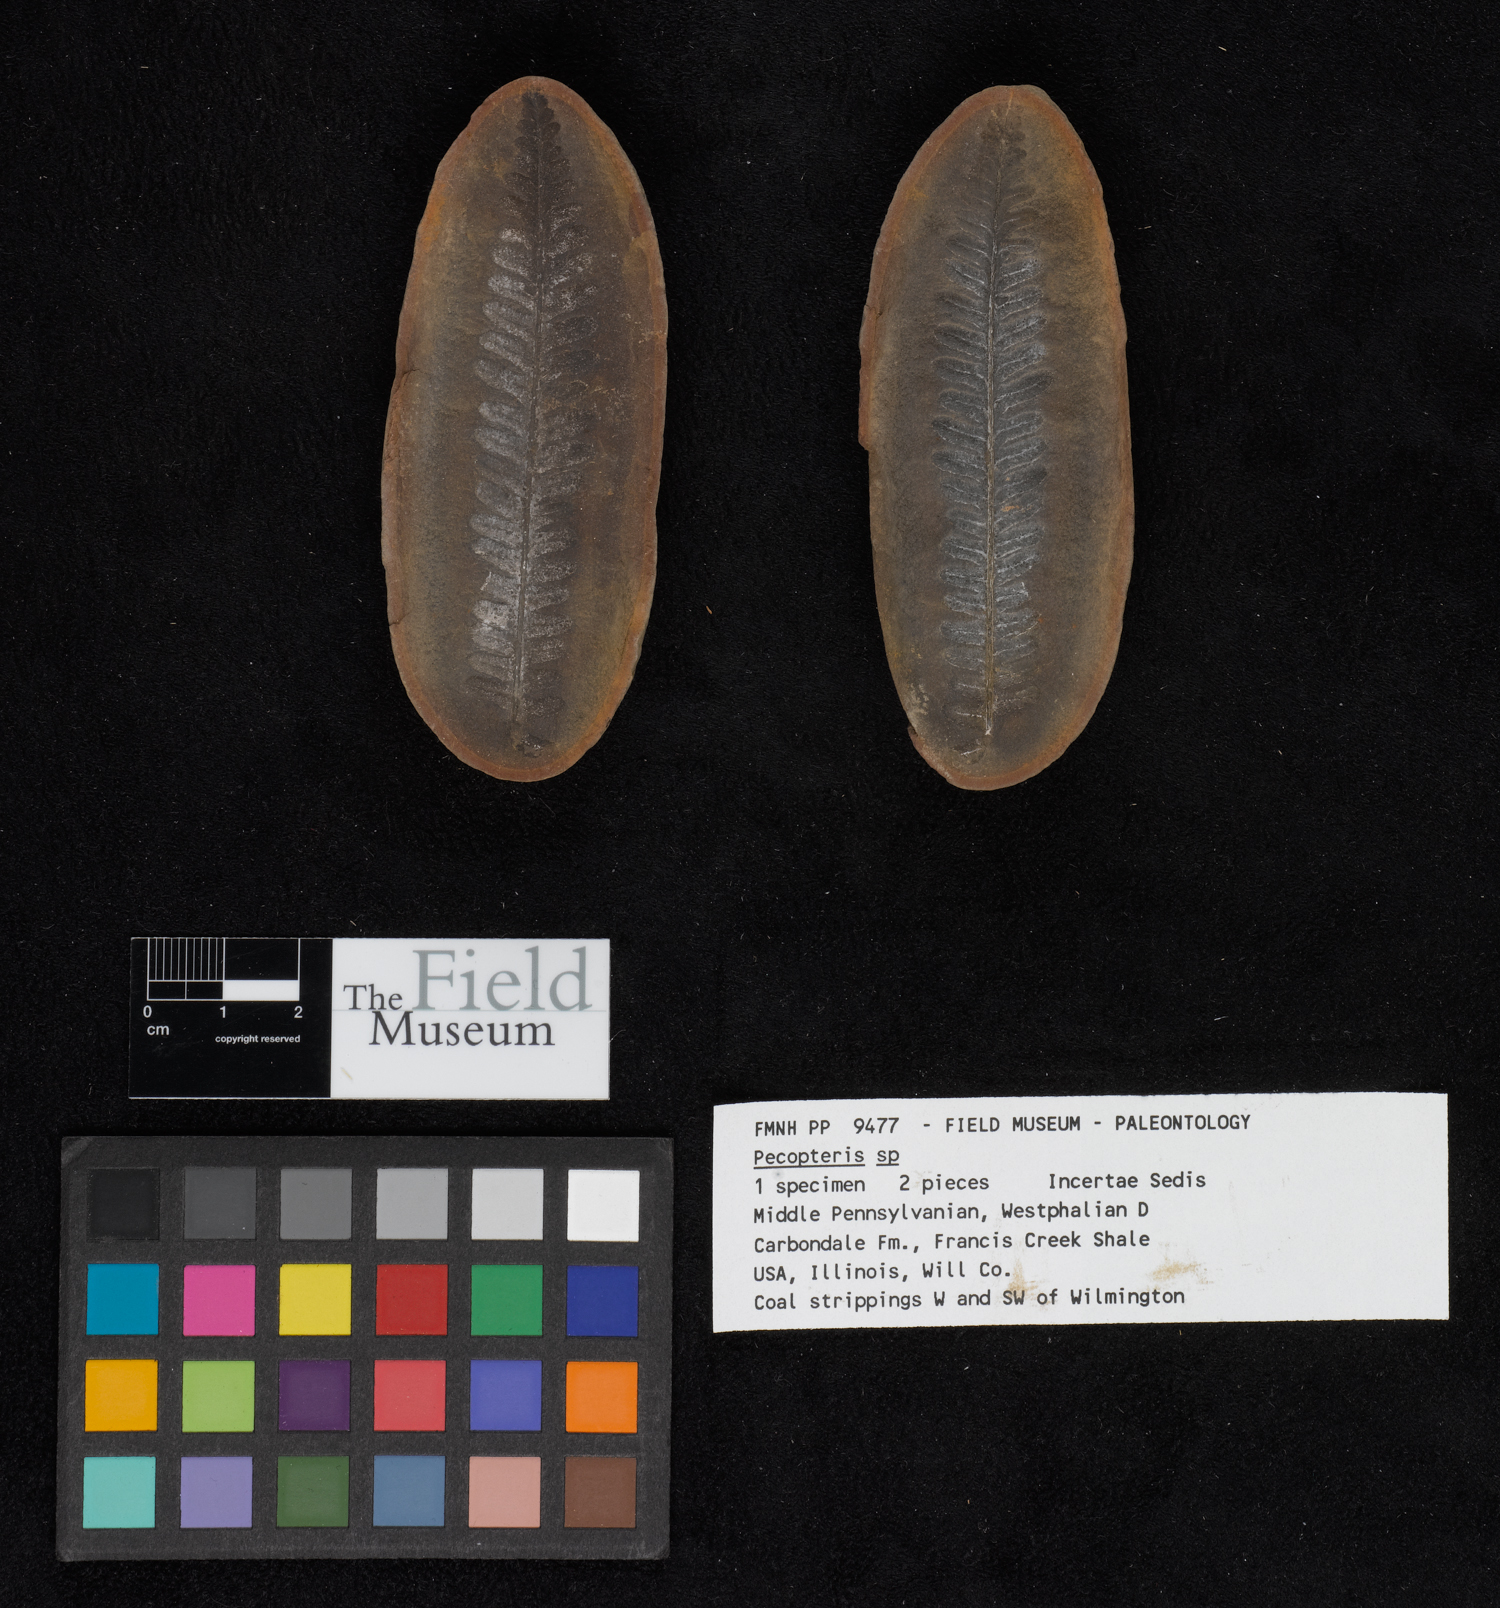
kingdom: Plantae
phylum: Tracheophyta
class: Polypodiopsida
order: Marattiales
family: Asterothecaceae
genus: Pecopteris
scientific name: Pecopteris
